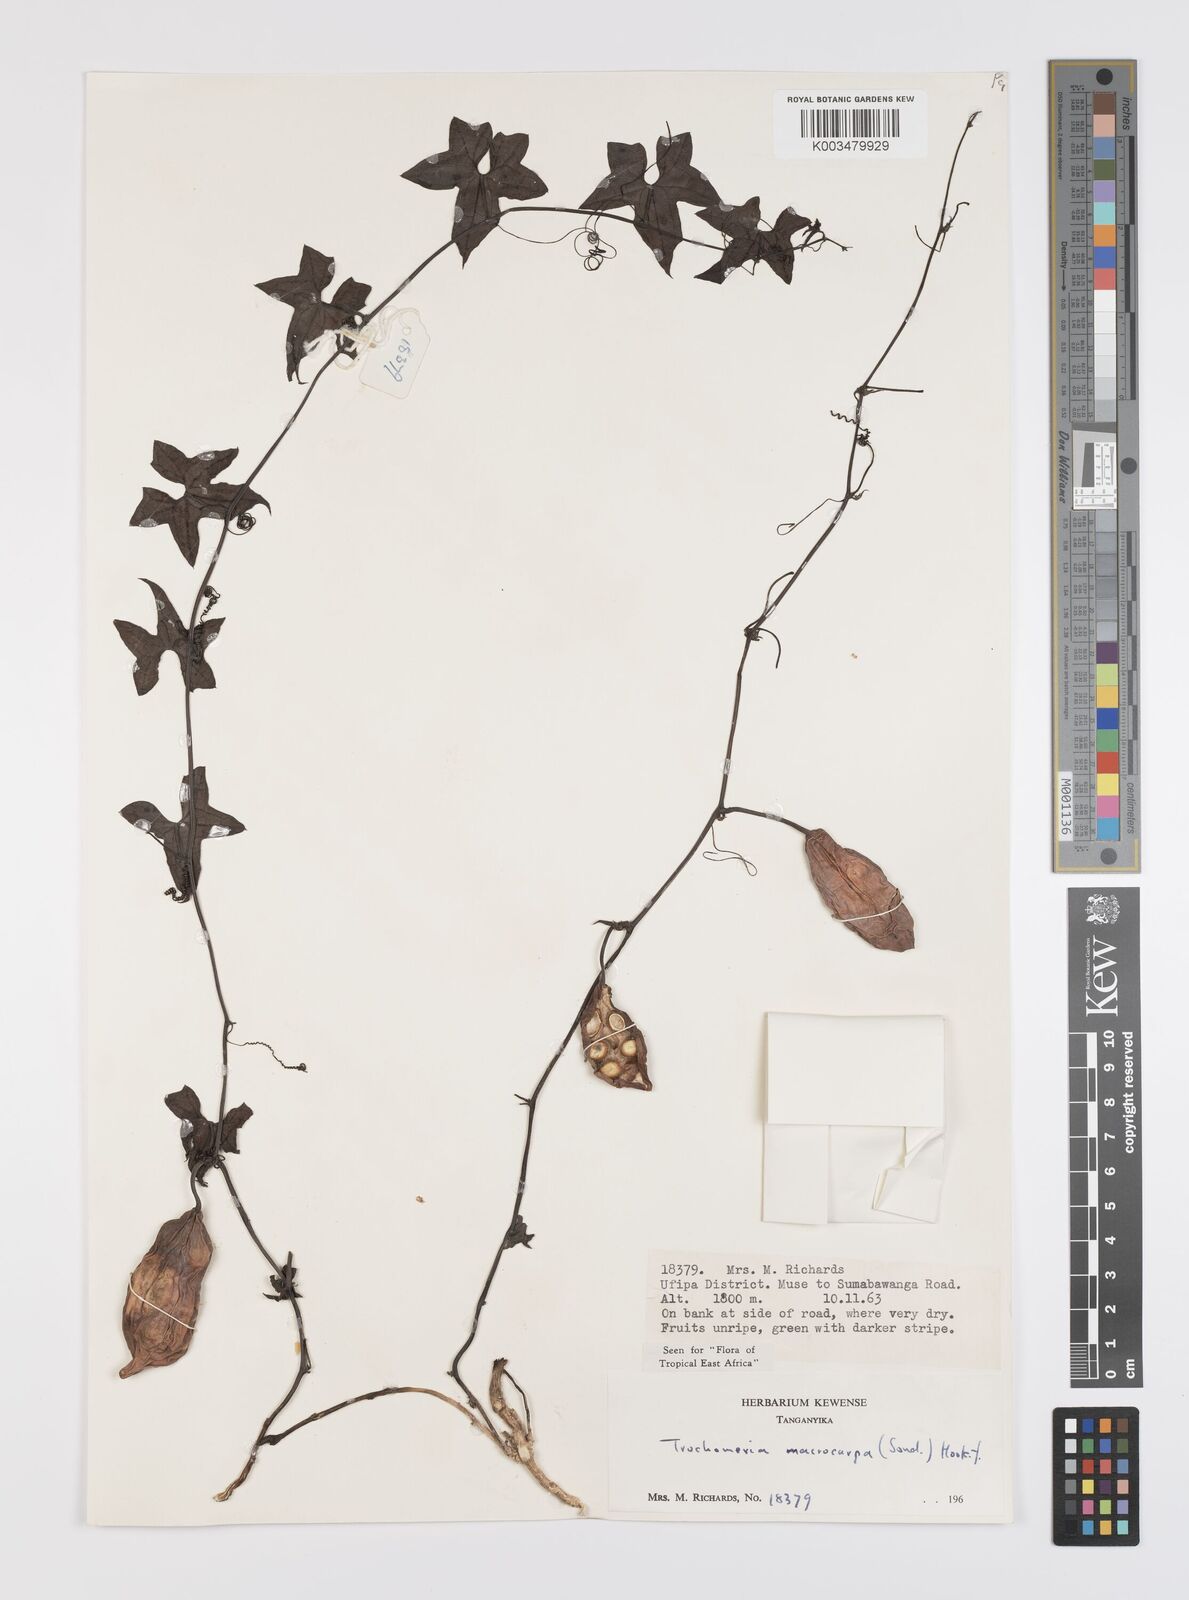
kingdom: Plantae
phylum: Tracheophyta
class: Magnoliopsida
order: Cucurbitales
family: Cucurbitaceae
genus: Trochomeria
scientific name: Trochomeria macrocarpa
